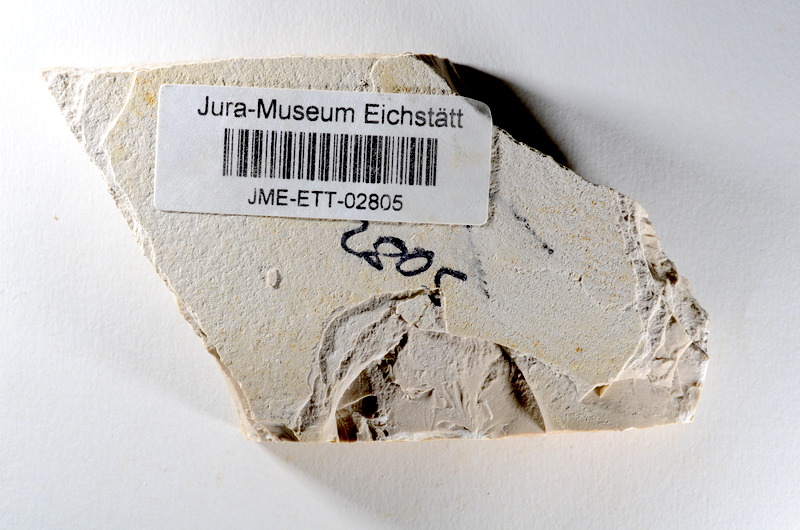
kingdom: Animalia
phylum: Chordata
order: Salmoniformes
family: Orthogonikleithridae
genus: Orthogonikleithrus
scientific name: Orthogonikleithrus hoelli
